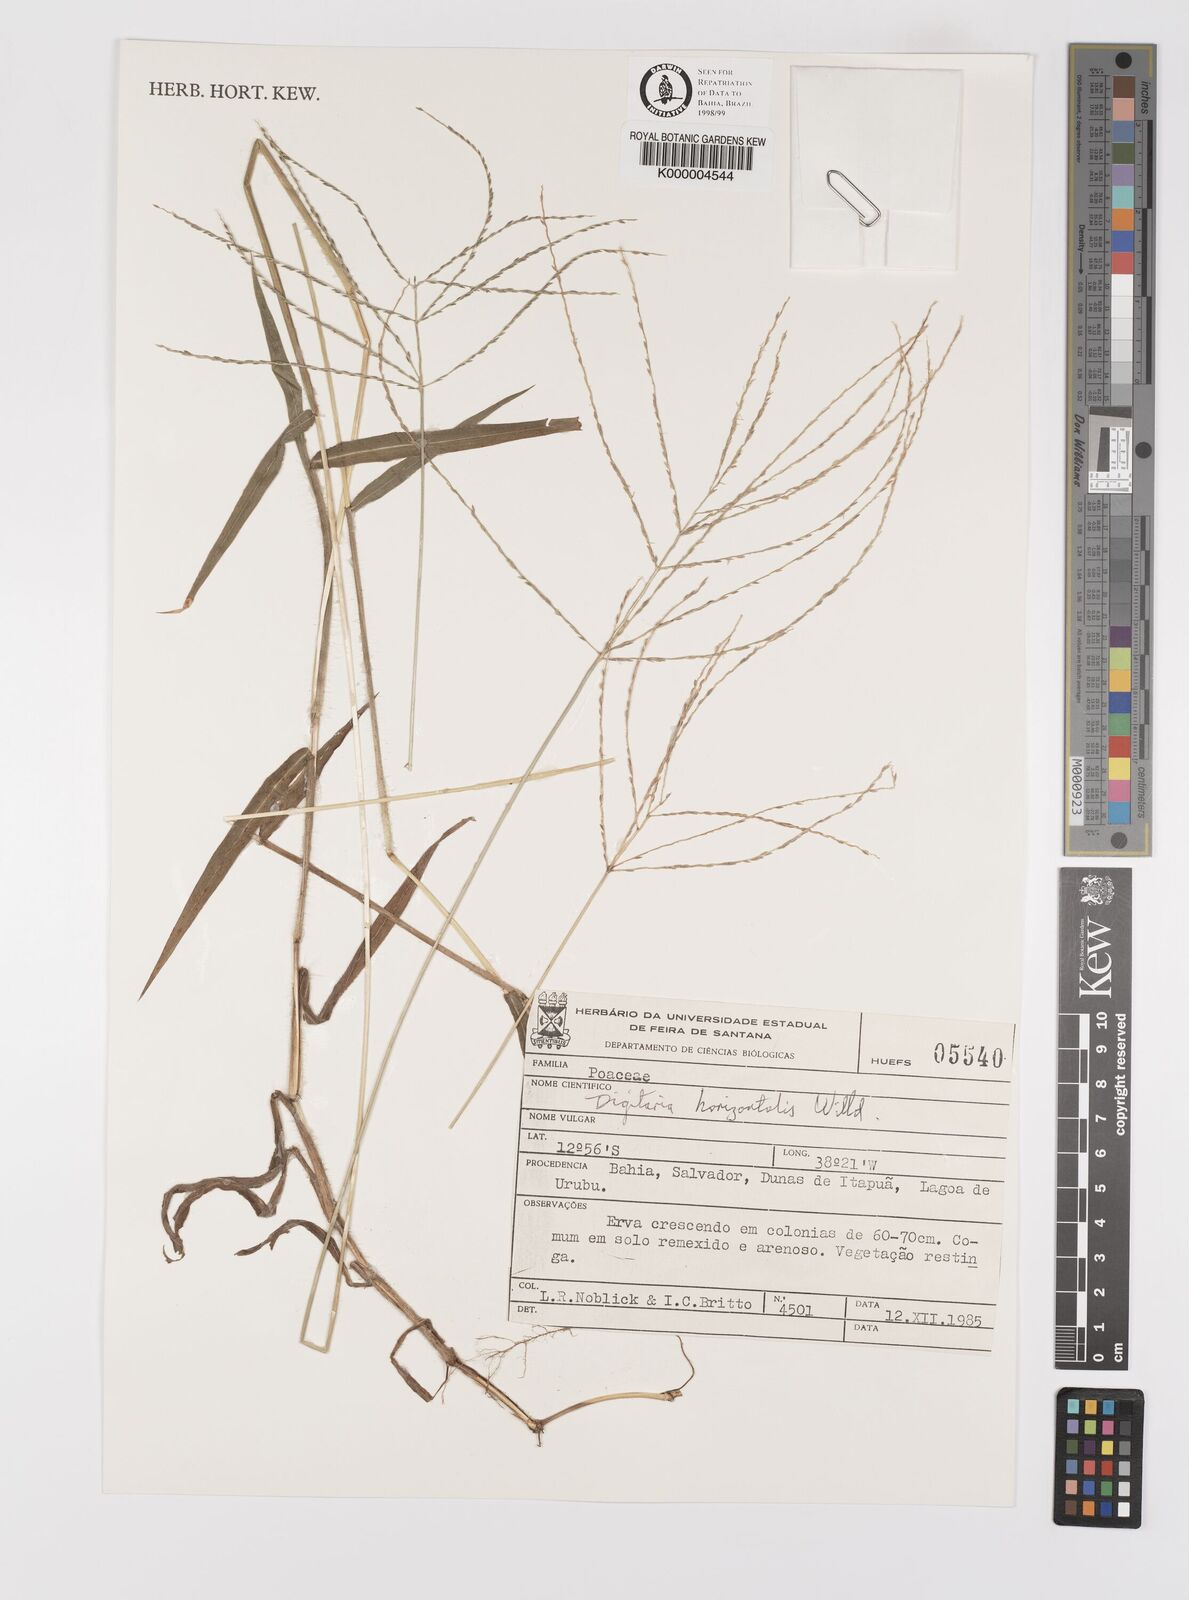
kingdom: Plantae
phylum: Tracheophyta
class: Liliopsida
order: Poales
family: Poaceae
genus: Digitaria
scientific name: Digitaria horizontalis
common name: Jamaican crabgrass
